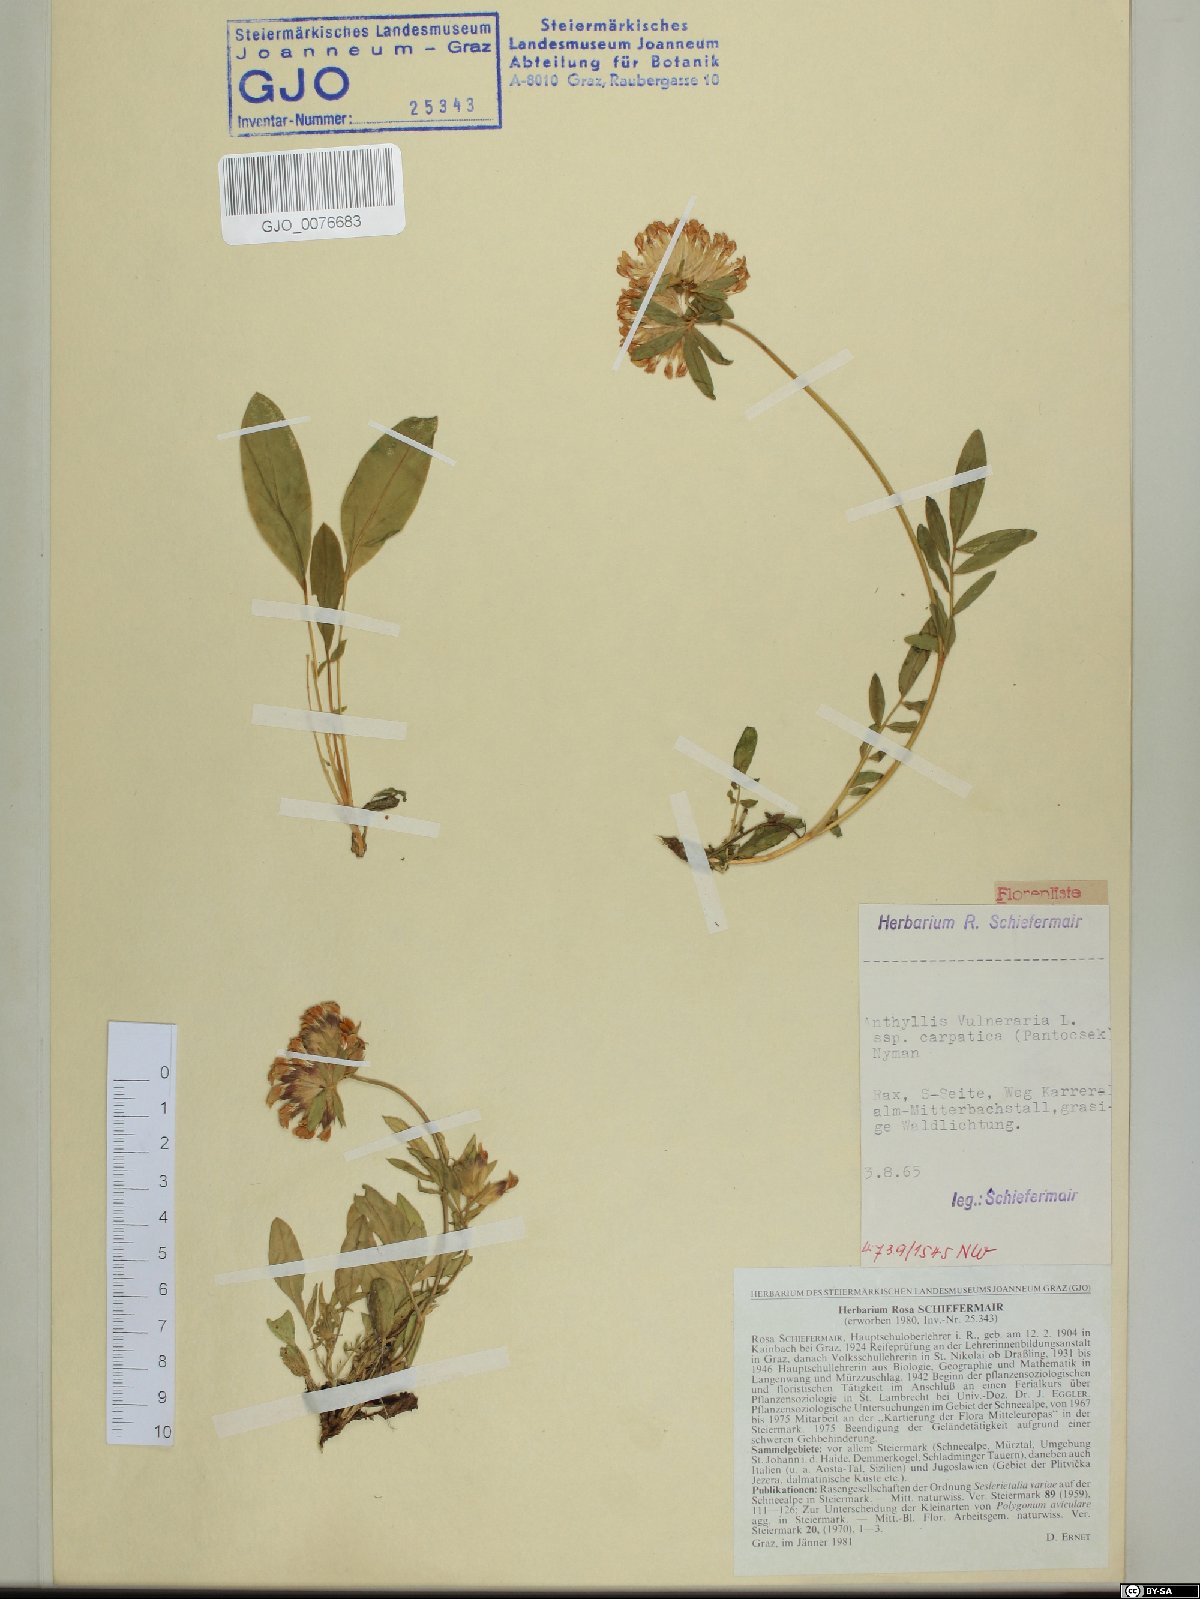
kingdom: Plantae
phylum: Tracheophyta
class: Magnoliopsida
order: Fabales
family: Fabaceae
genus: Anthyllis
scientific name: Anthyllis vulneraria
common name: Kidney vetch
